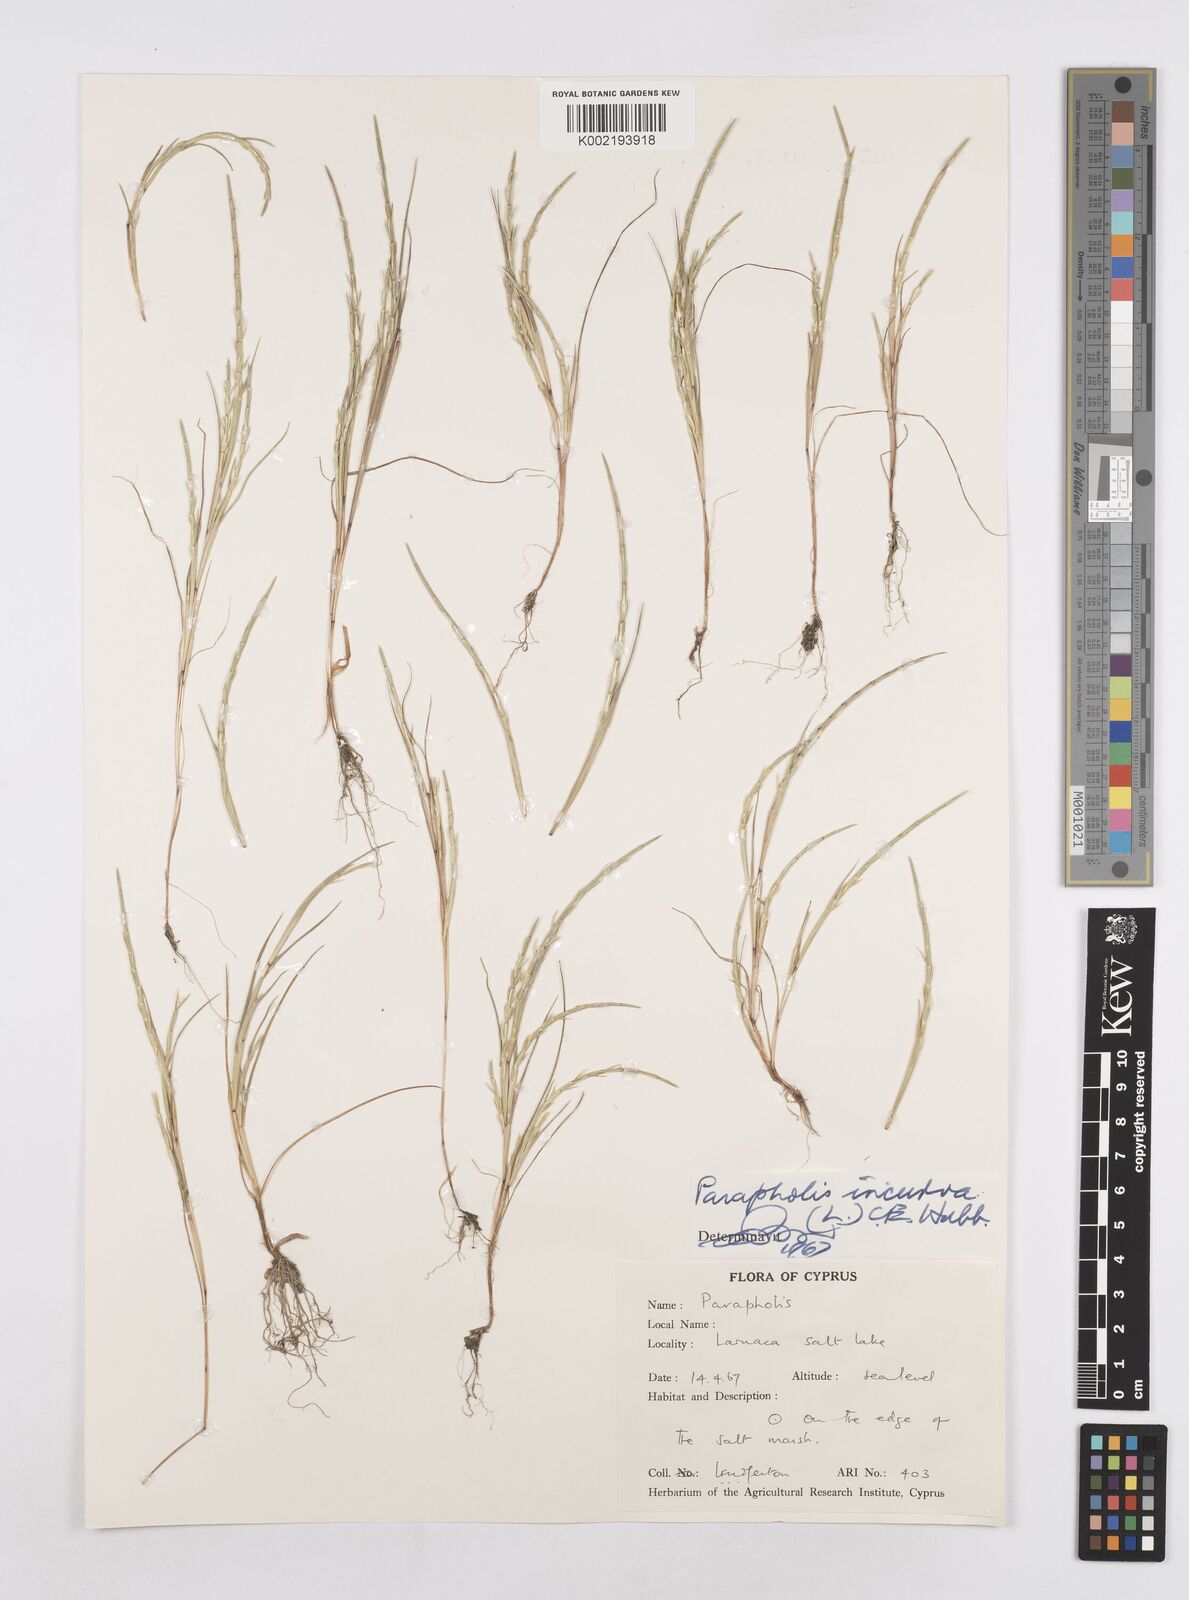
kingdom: Plantae
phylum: Tracheophyta
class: Liliopsida
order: Poales
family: Poaceae
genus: Parapholis
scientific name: Parapholis incurva
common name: Curved sicklegrass
